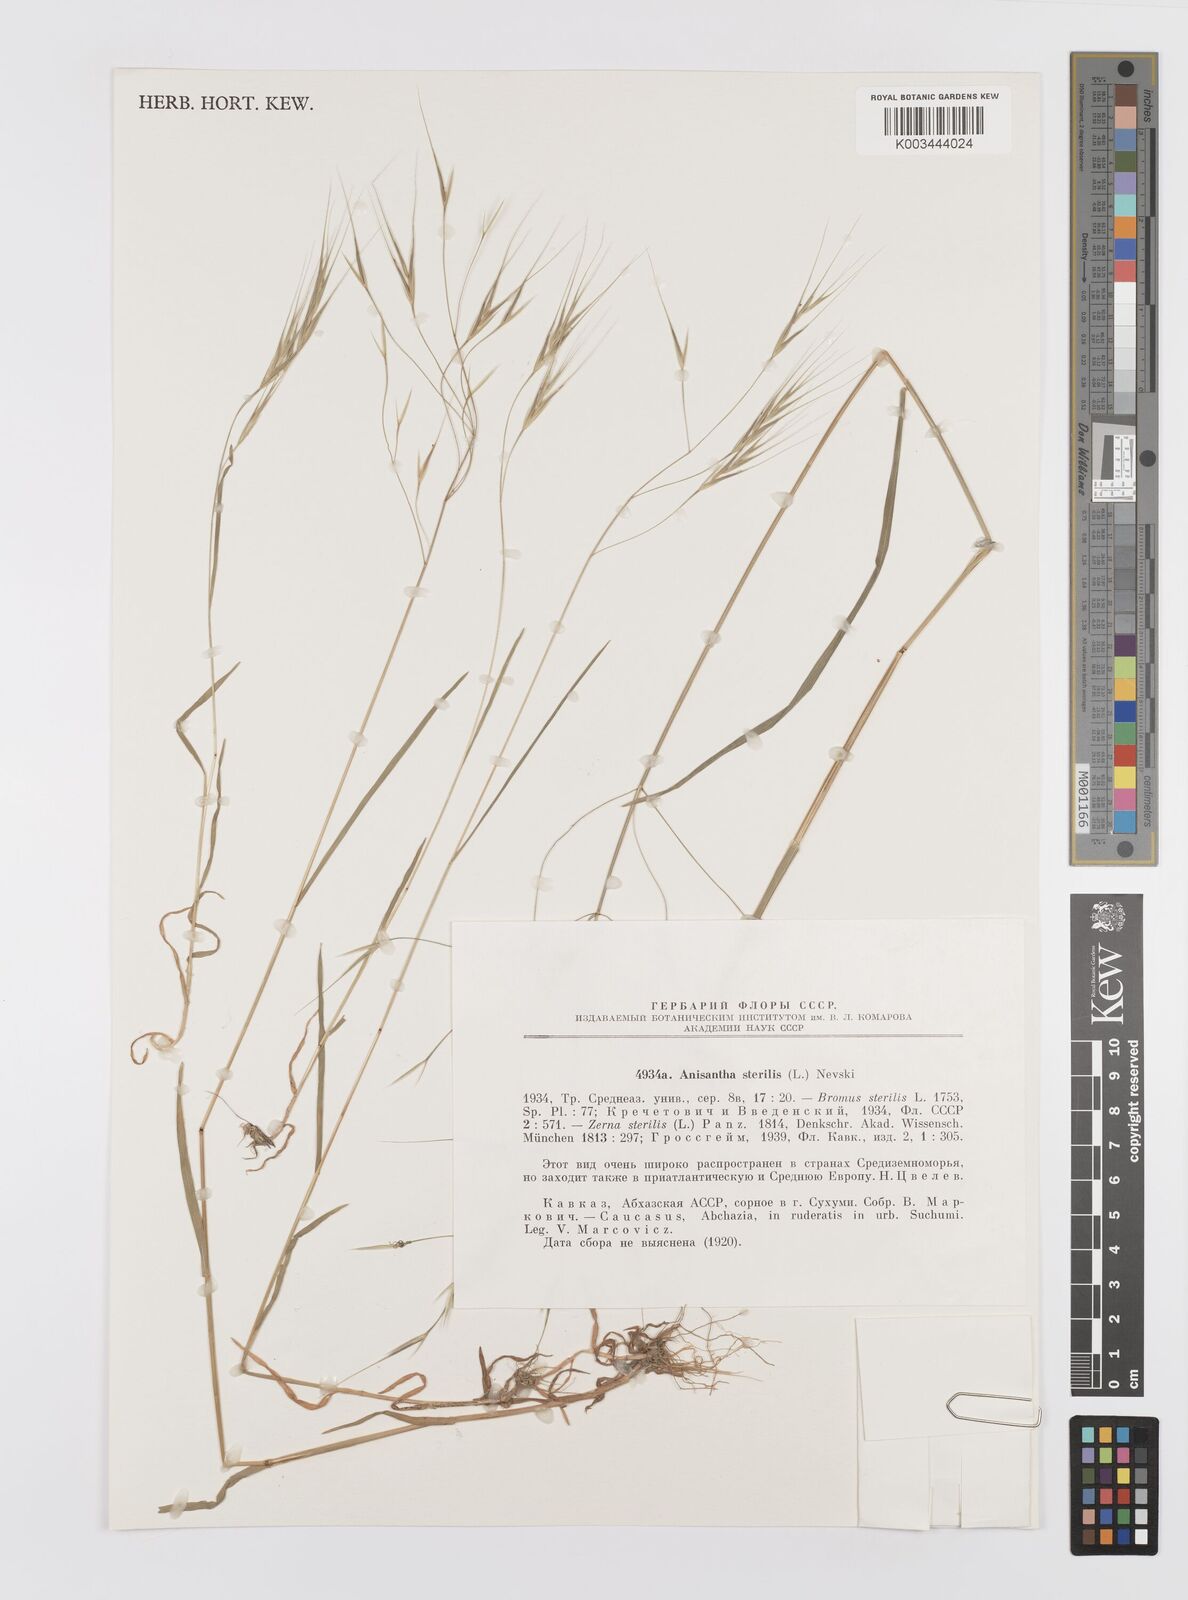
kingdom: Plantae
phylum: Tracheophyta
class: Liliopsida
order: Poales
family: Poaceae
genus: Bromus
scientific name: Bromus sterilis
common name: Poverty brome
